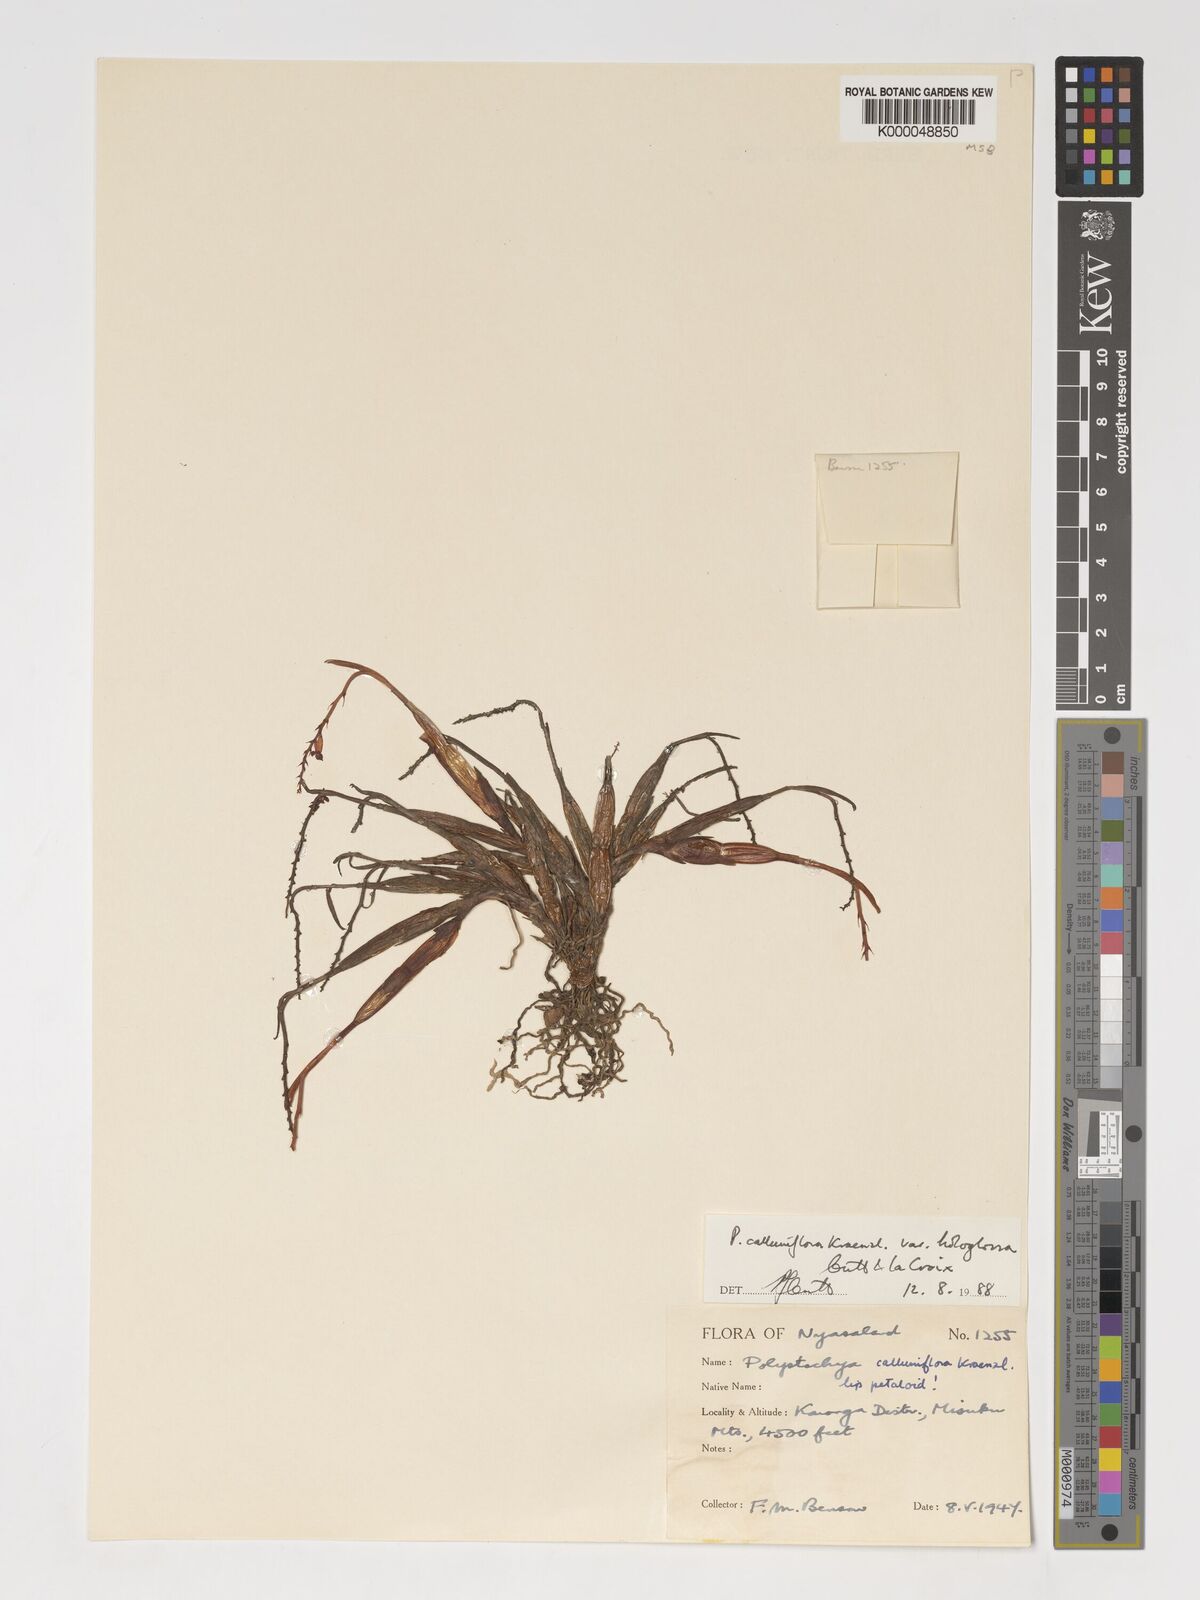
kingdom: Plantae
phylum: Tracheophyta
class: Liliopsida
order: Asparagales
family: Orchidaceae
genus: Polystachya
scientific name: Polystachya hologlossa
